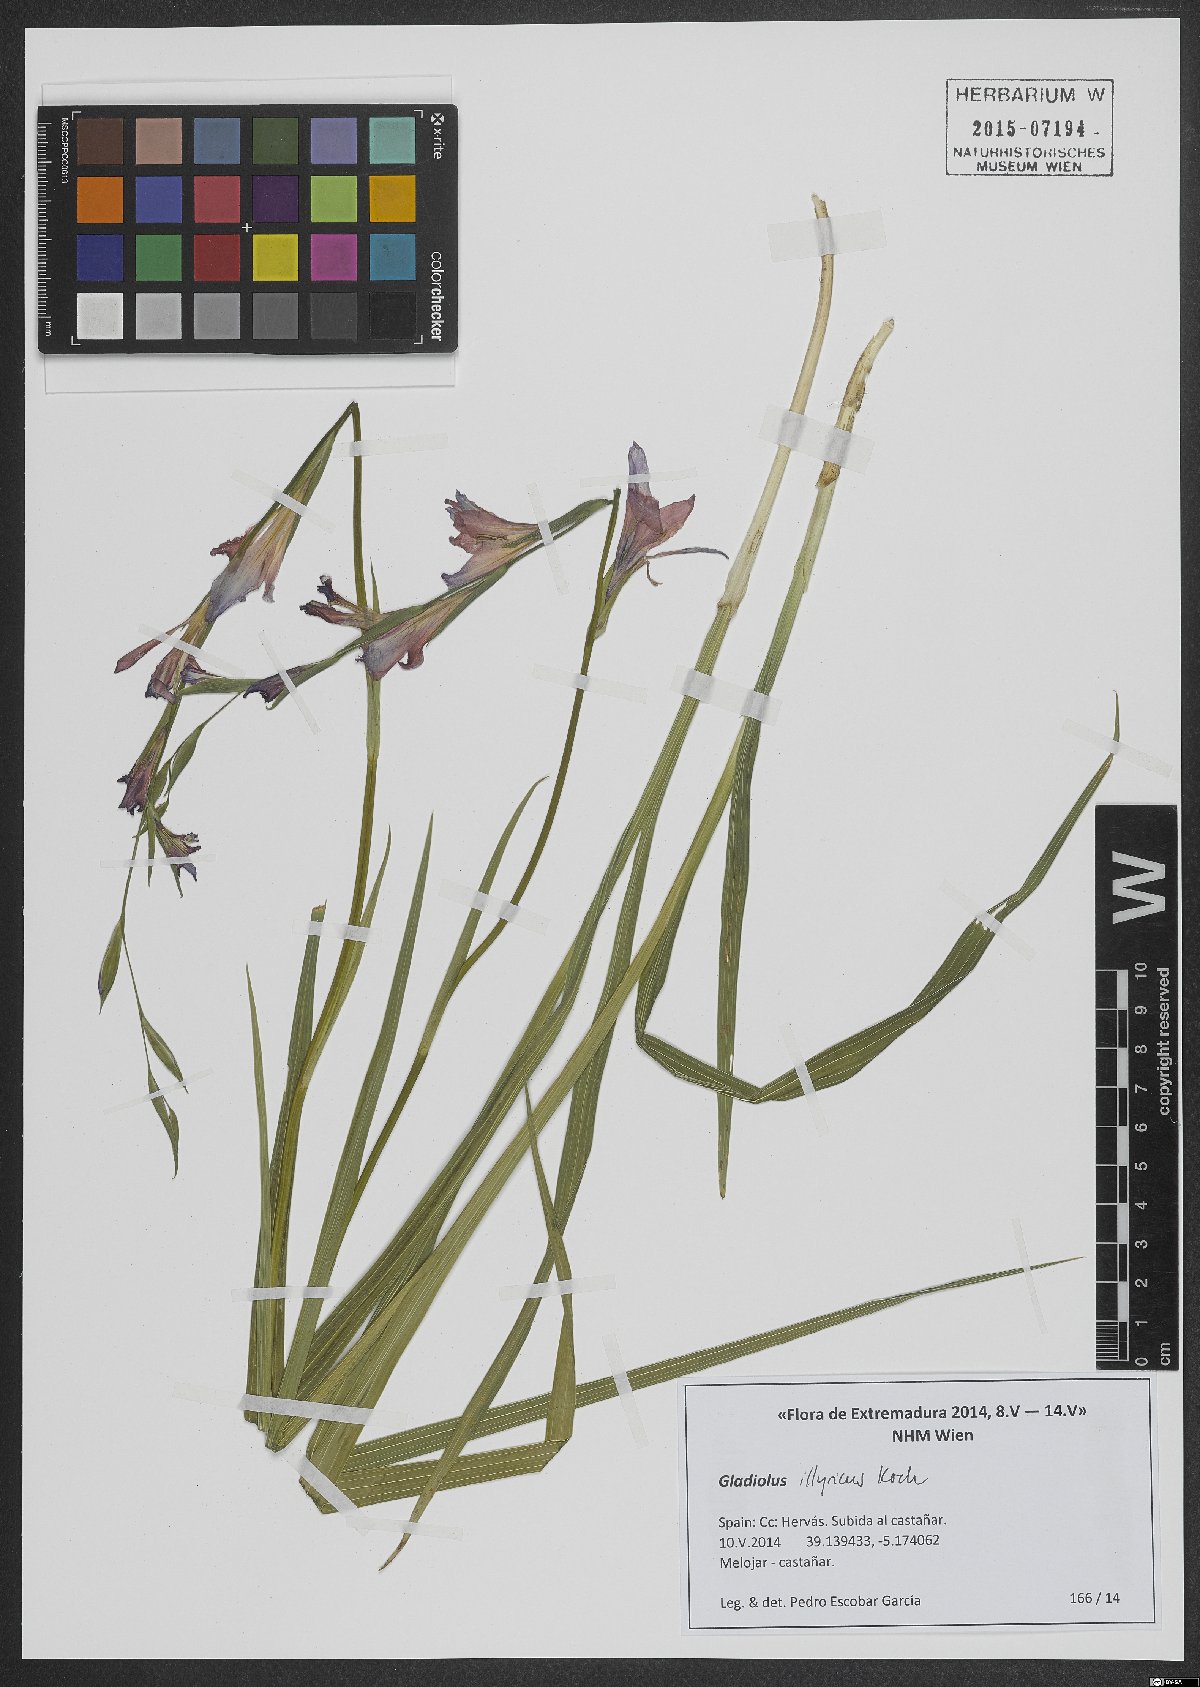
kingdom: Plantae
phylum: Tracheophyta
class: Liliopsida
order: Asparagales
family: Iridaceae
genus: Gladiolus
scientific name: Gladiolus illyricus
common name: Wild gladiolus
